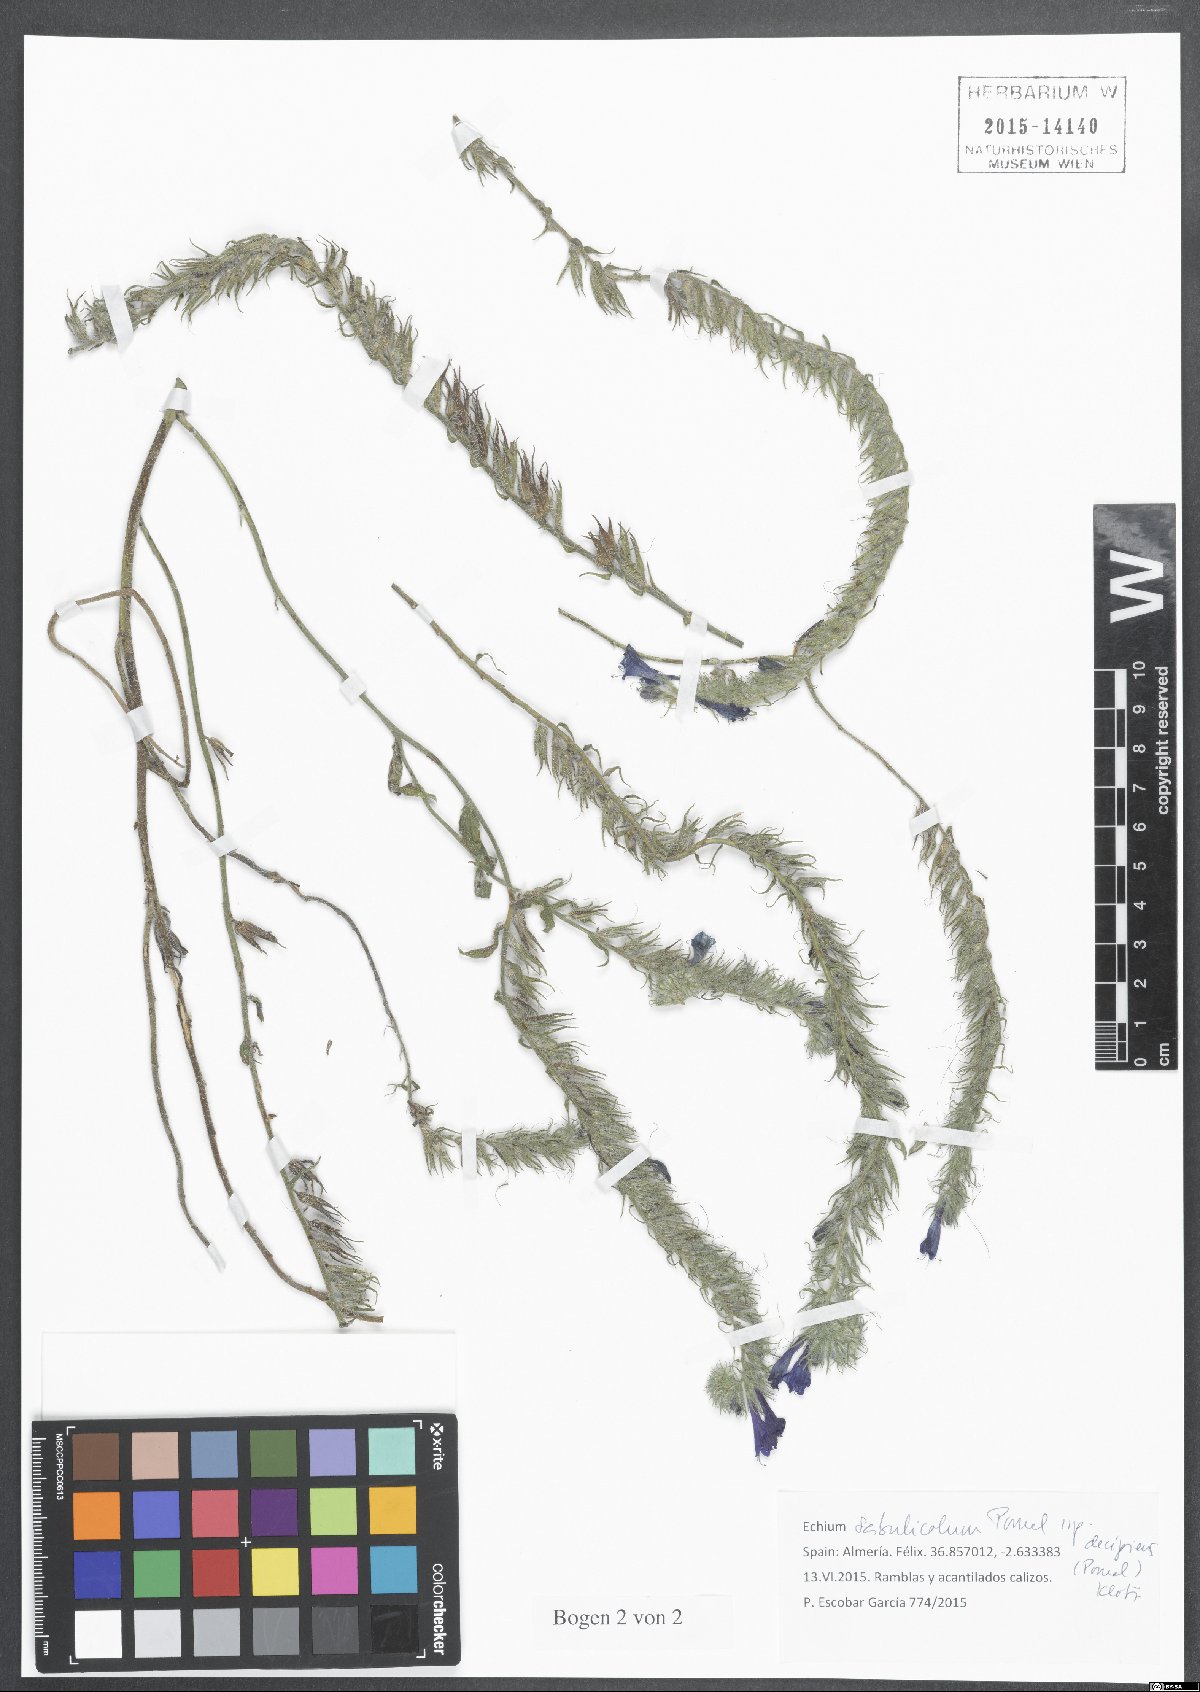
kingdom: Plantae
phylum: Tracheophyta
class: Magnoliopsida
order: Boraginales
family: Boraginaceae
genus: Echium
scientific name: Echium sabulicola
